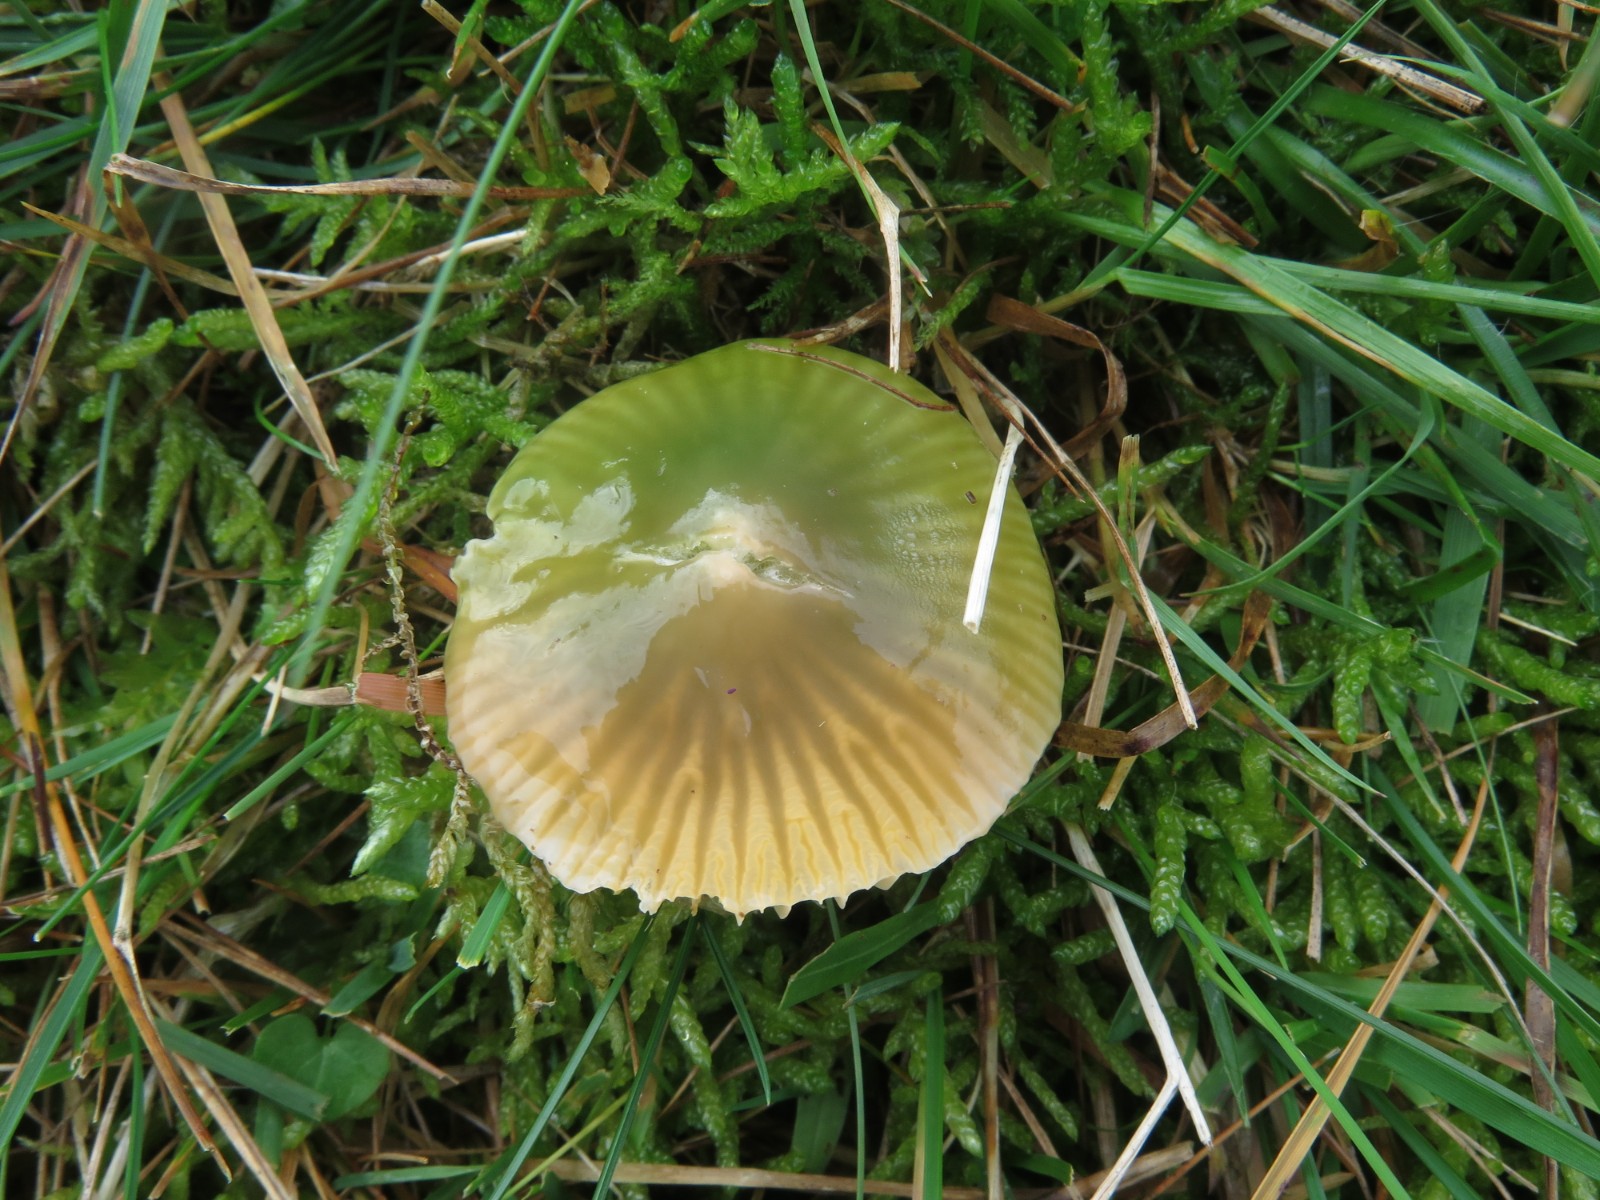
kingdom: Fungi
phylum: Basidiomycota
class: Agaricomycetes
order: Agaricales
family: Hygrophoraceae
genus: Gliophorus
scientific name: Gliophorus psittacinus
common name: papegøje-vokshat
